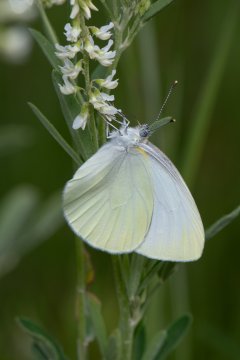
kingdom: Animalia
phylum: Arthropoda
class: Insecta
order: Lepidoptera
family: Pieridae
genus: Pieris
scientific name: Pieris oleracea
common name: Mustard White
